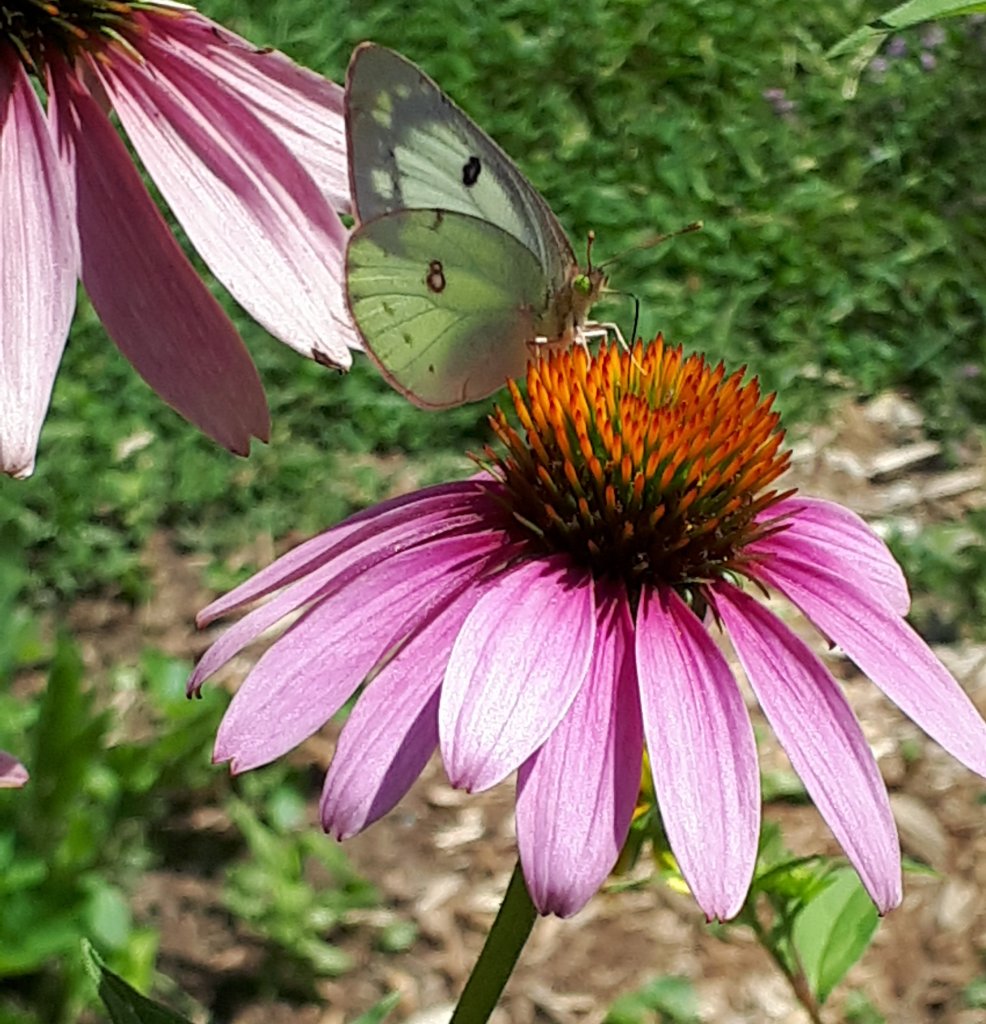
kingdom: Animalia
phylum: Arthropoda
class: Insecta
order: Lepidoptera
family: Pieridae
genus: Colias
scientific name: Colias philodice
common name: Clouded Sulphur
